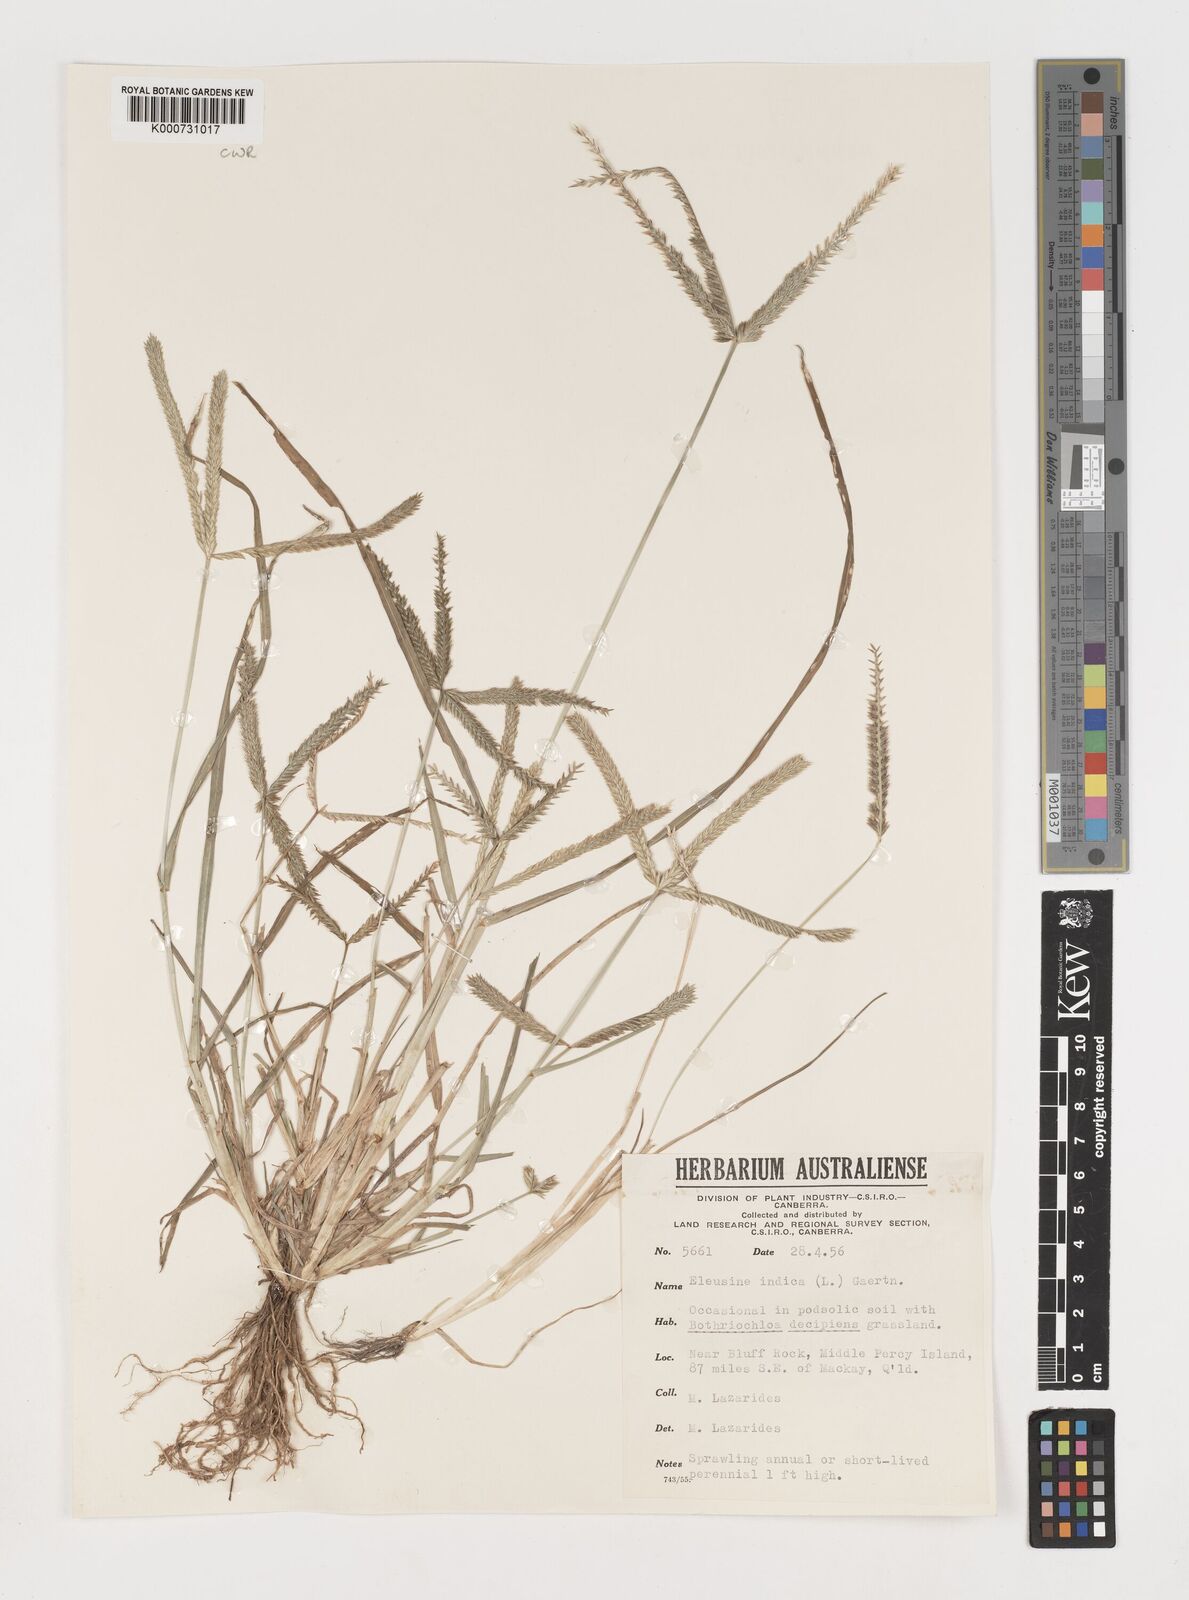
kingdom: Plantae
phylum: Tracheophyta
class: Liliopsida
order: Poales
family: Poaceae
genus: Eleusine
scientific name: Eleusine indica
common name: Yard-grass
